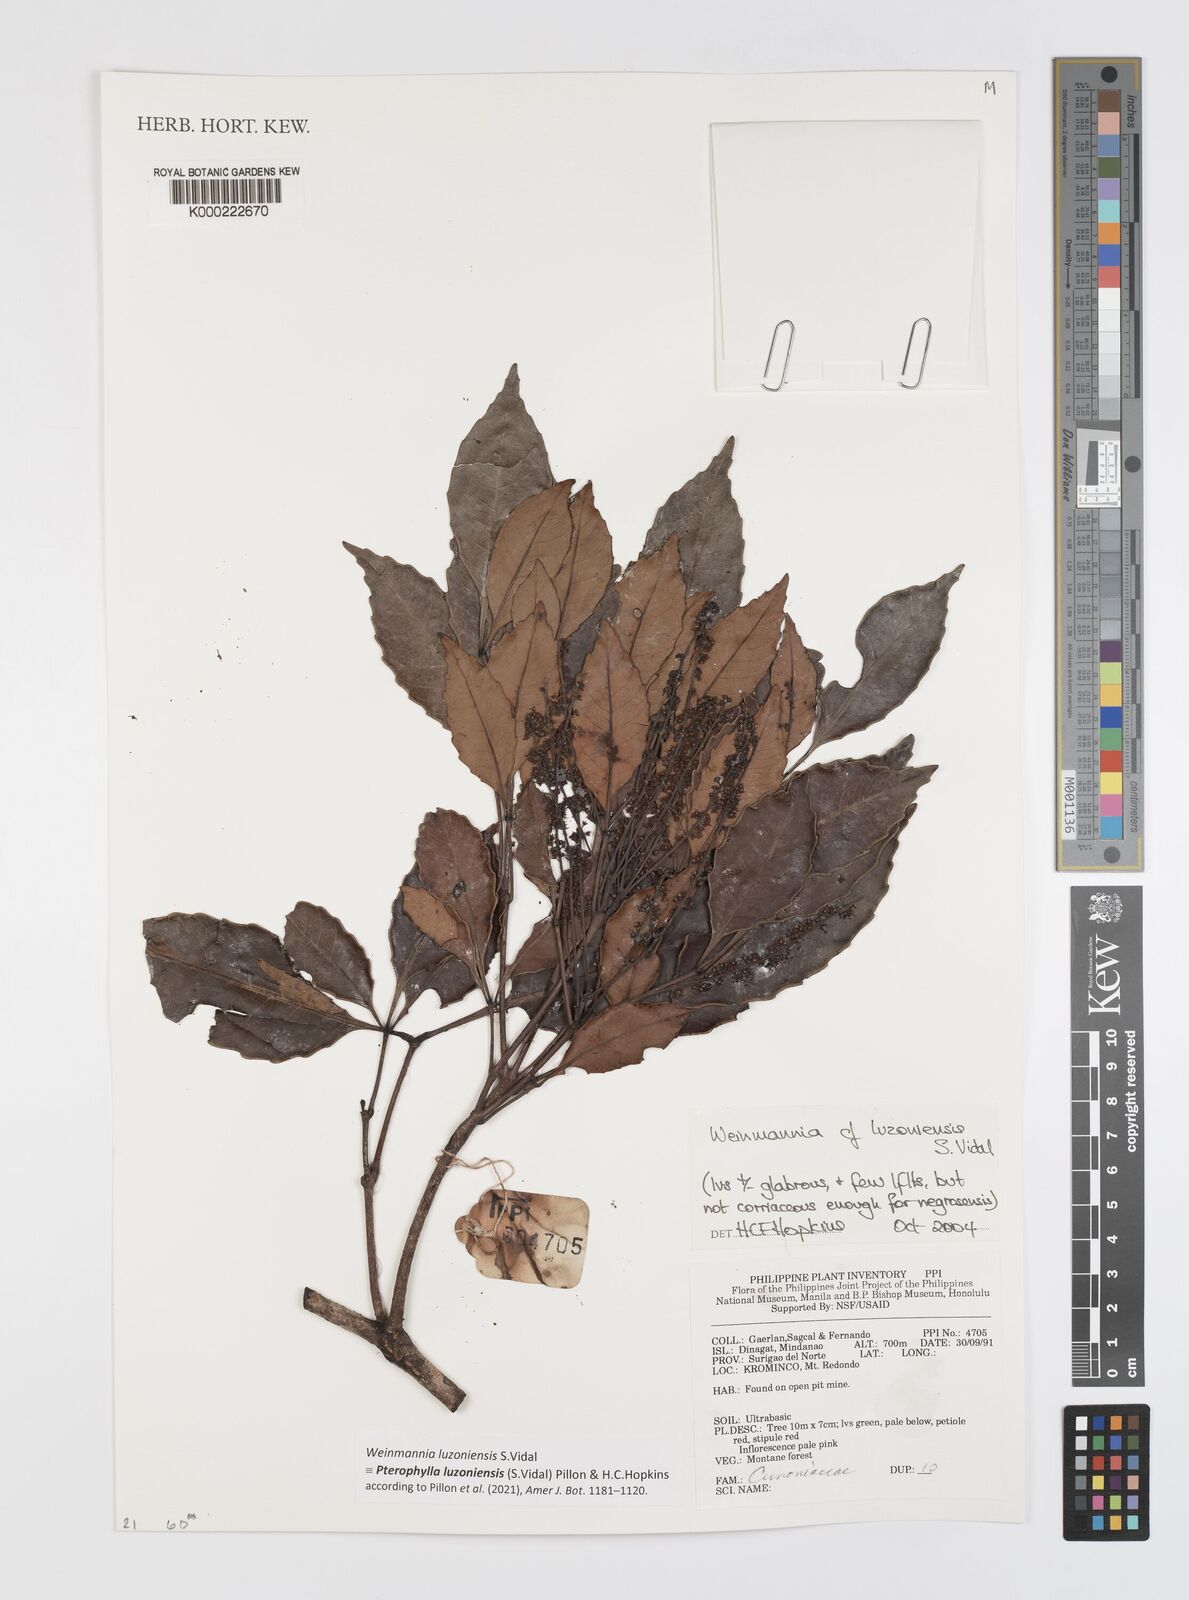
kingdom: Plantae
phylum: Tracheophyta
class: Magnoliopsida
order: Oxalidales
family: Cunoniaceae
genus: Pterophylla
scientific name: Pterophylla luzoniensis
